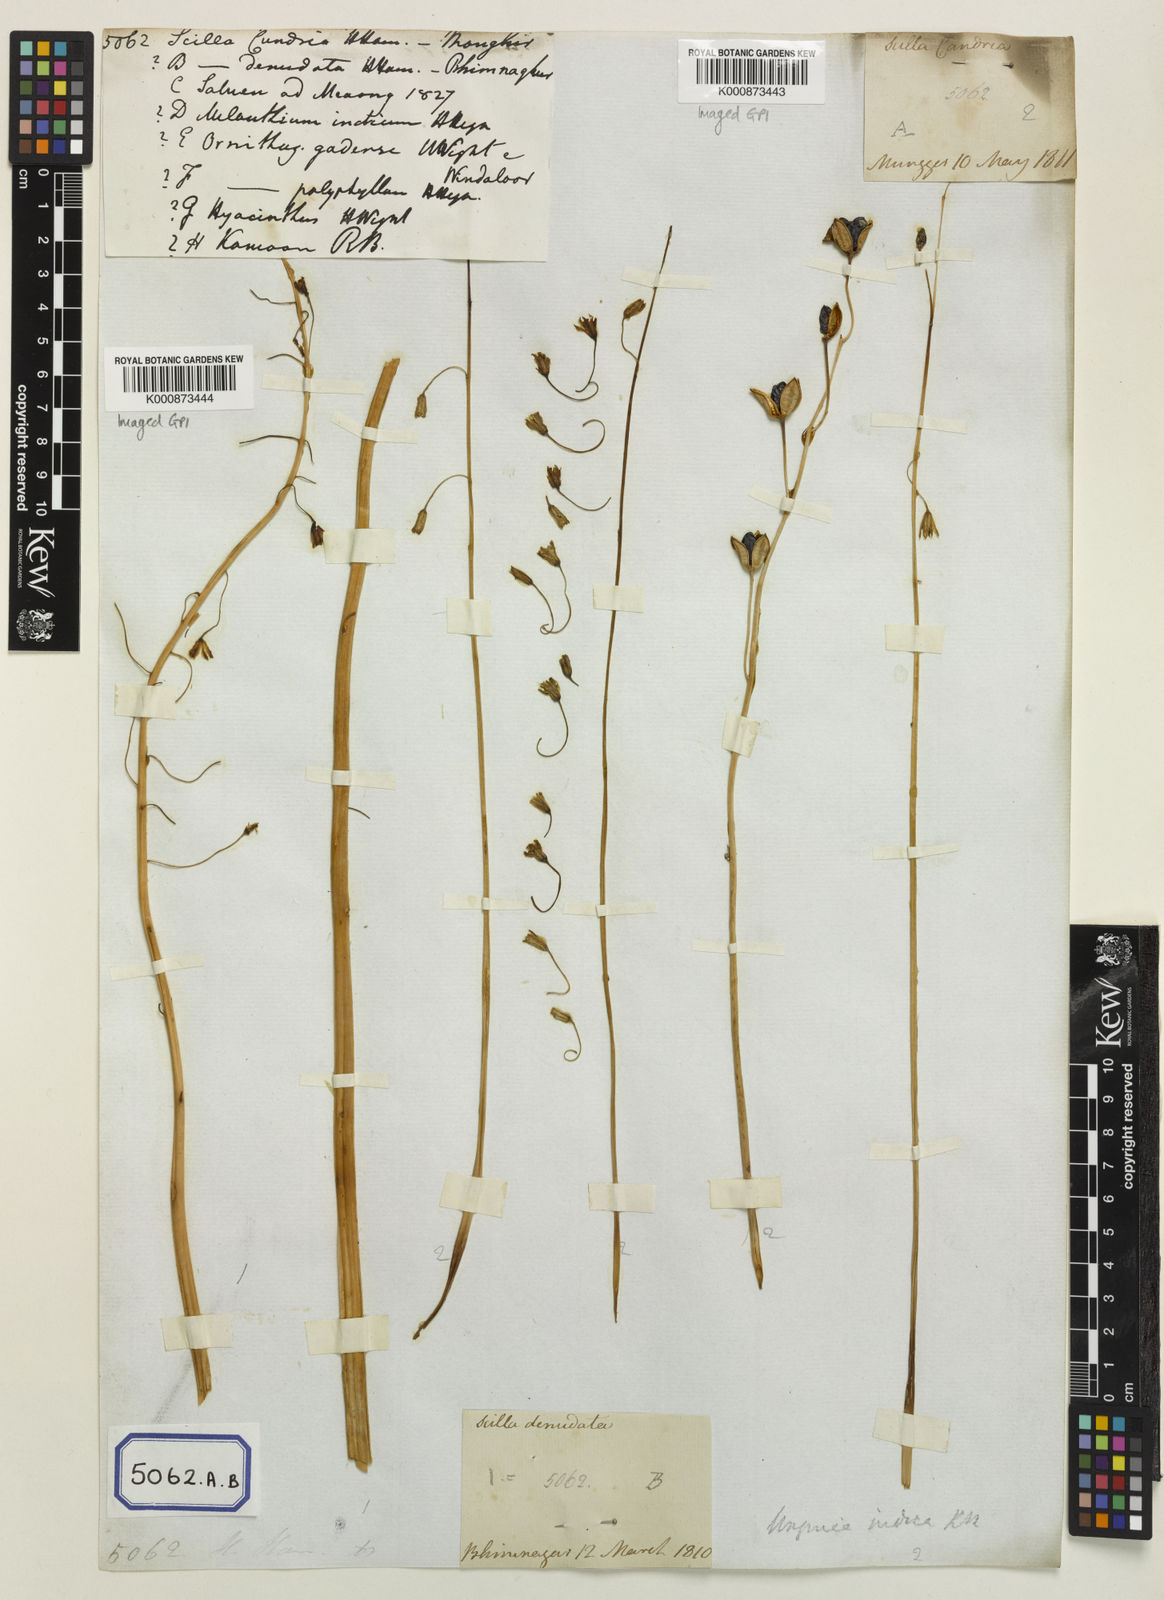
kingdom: Plantae
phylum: Tracheophyta
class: Liliopsida
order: Asparagales
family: Asparagaceae
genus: Drimia
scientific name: Drimia indica
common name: Indian-squill
